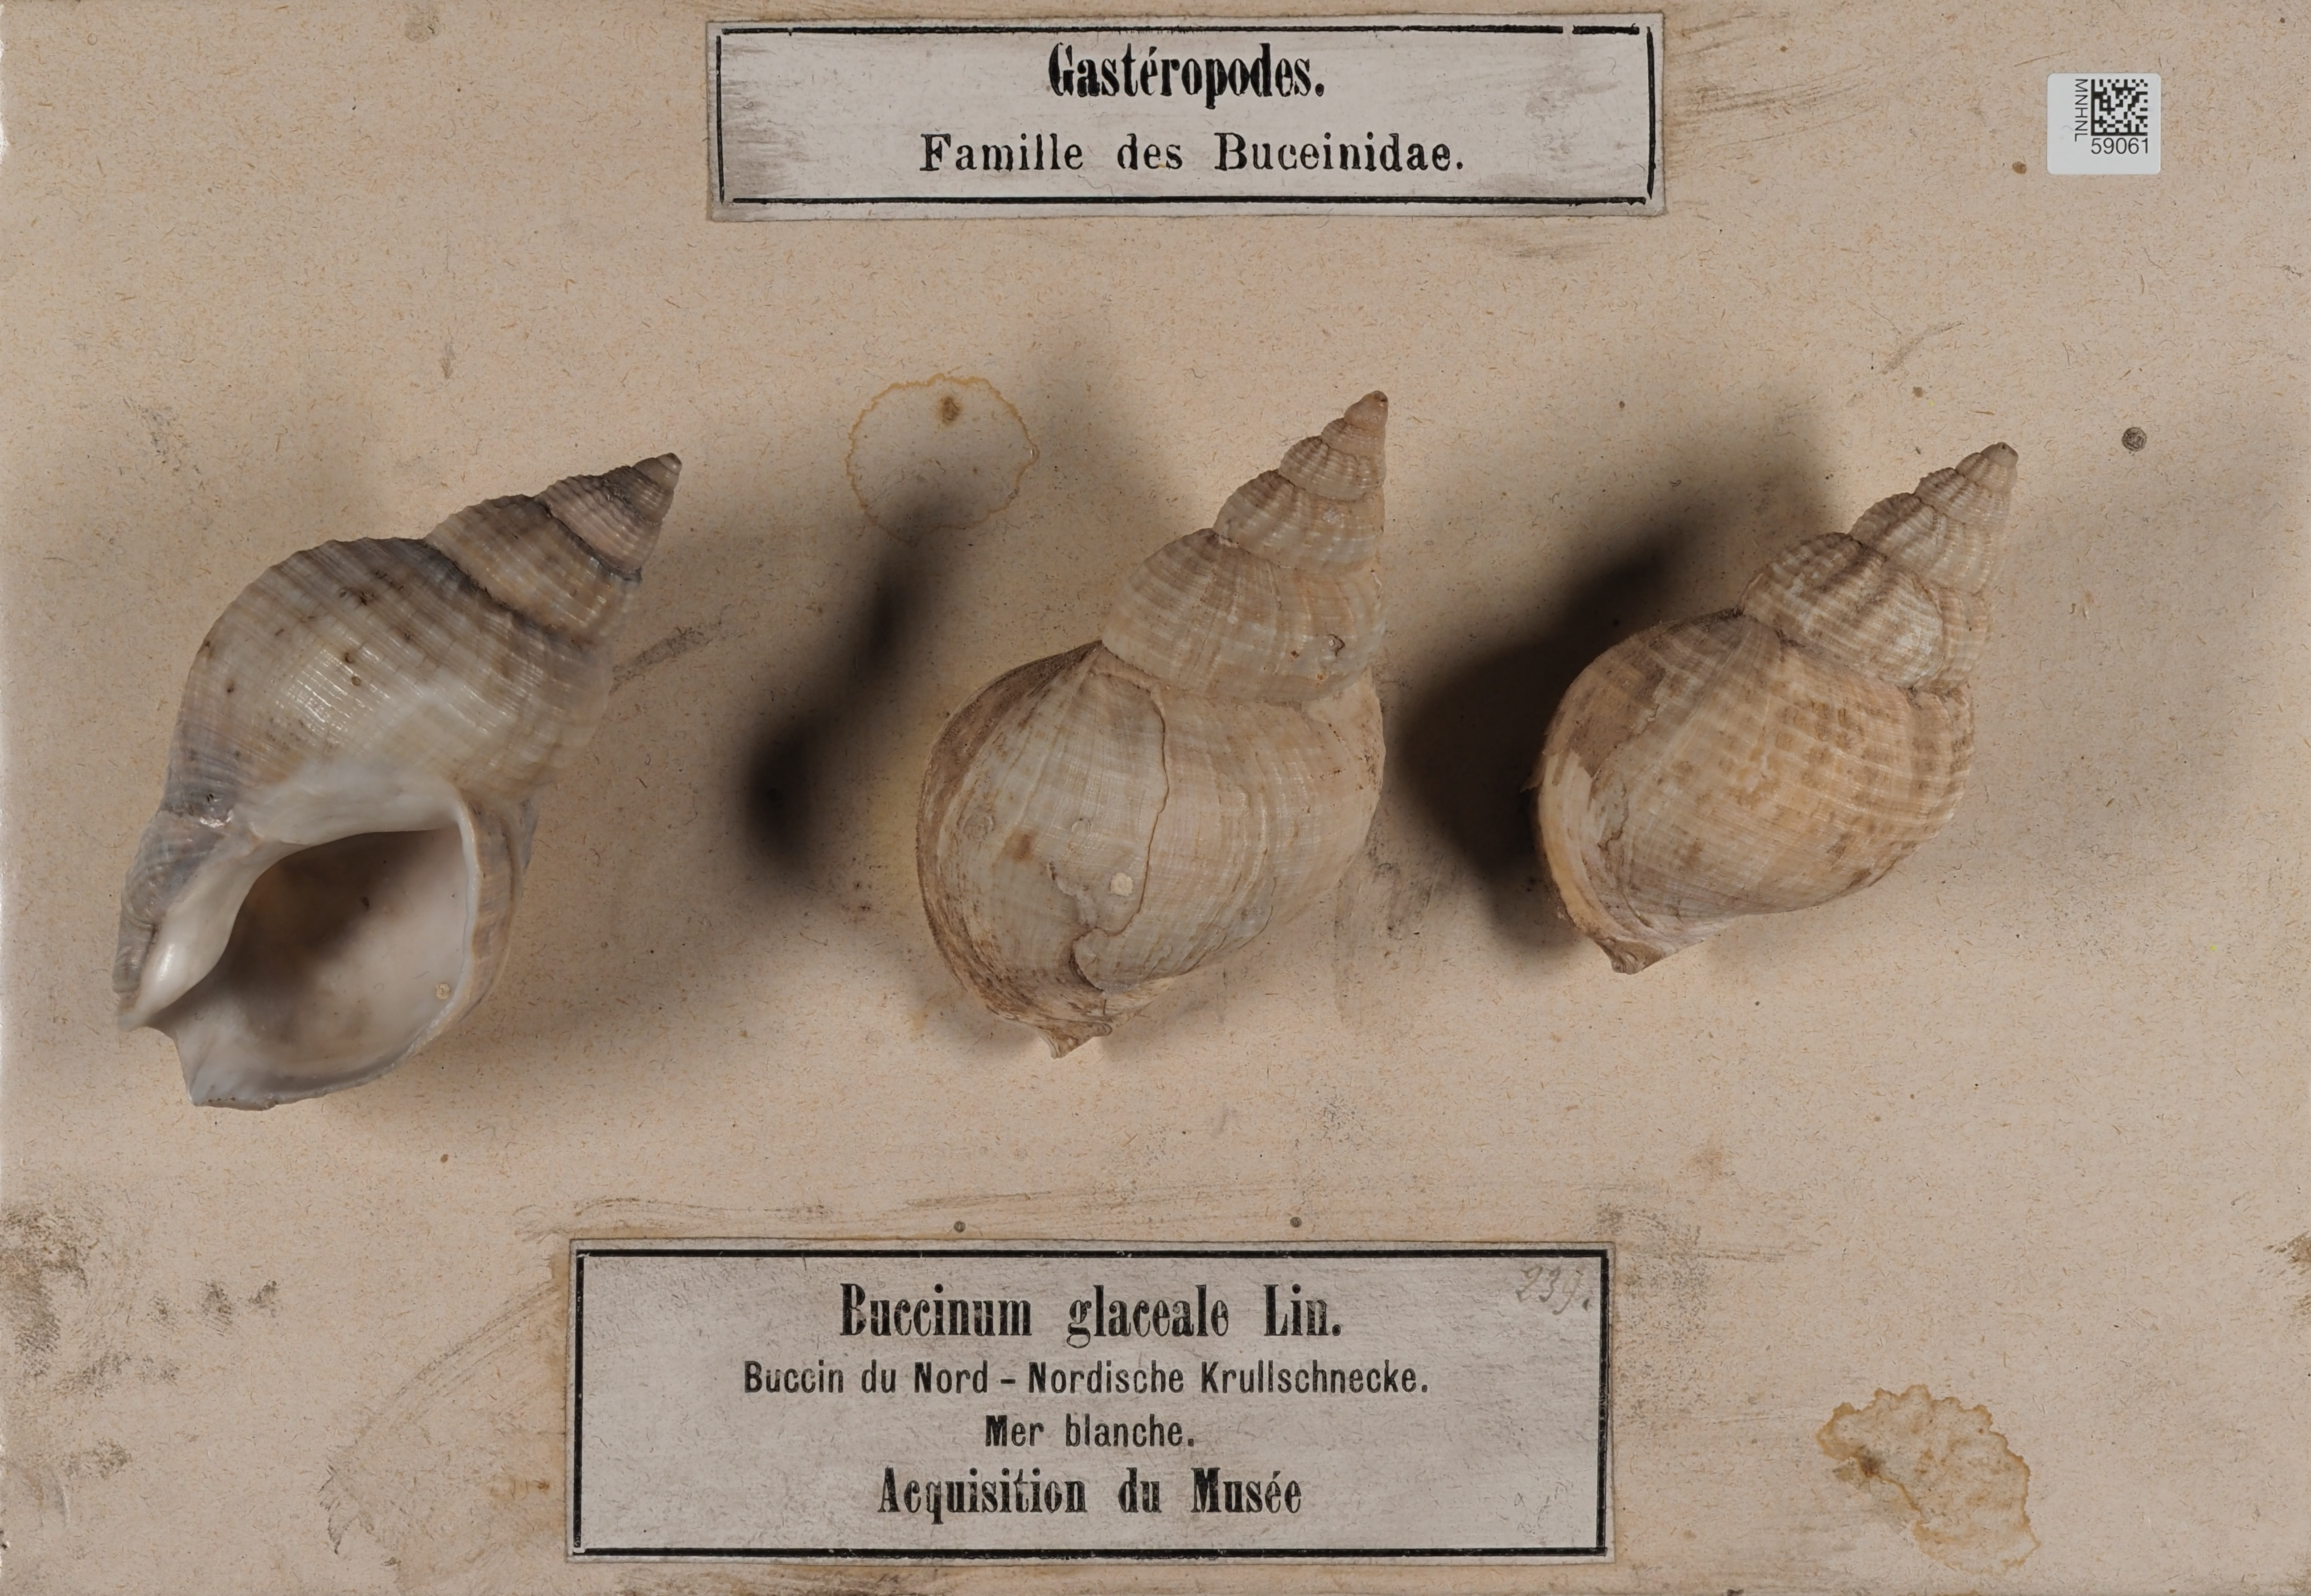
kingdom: Animalia
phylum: Mollusca
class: Gastropoda
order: Neogastropoda
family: Buccinidae
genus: Buccinum
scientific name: Buccinum glaciale
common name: Glacial whelk
